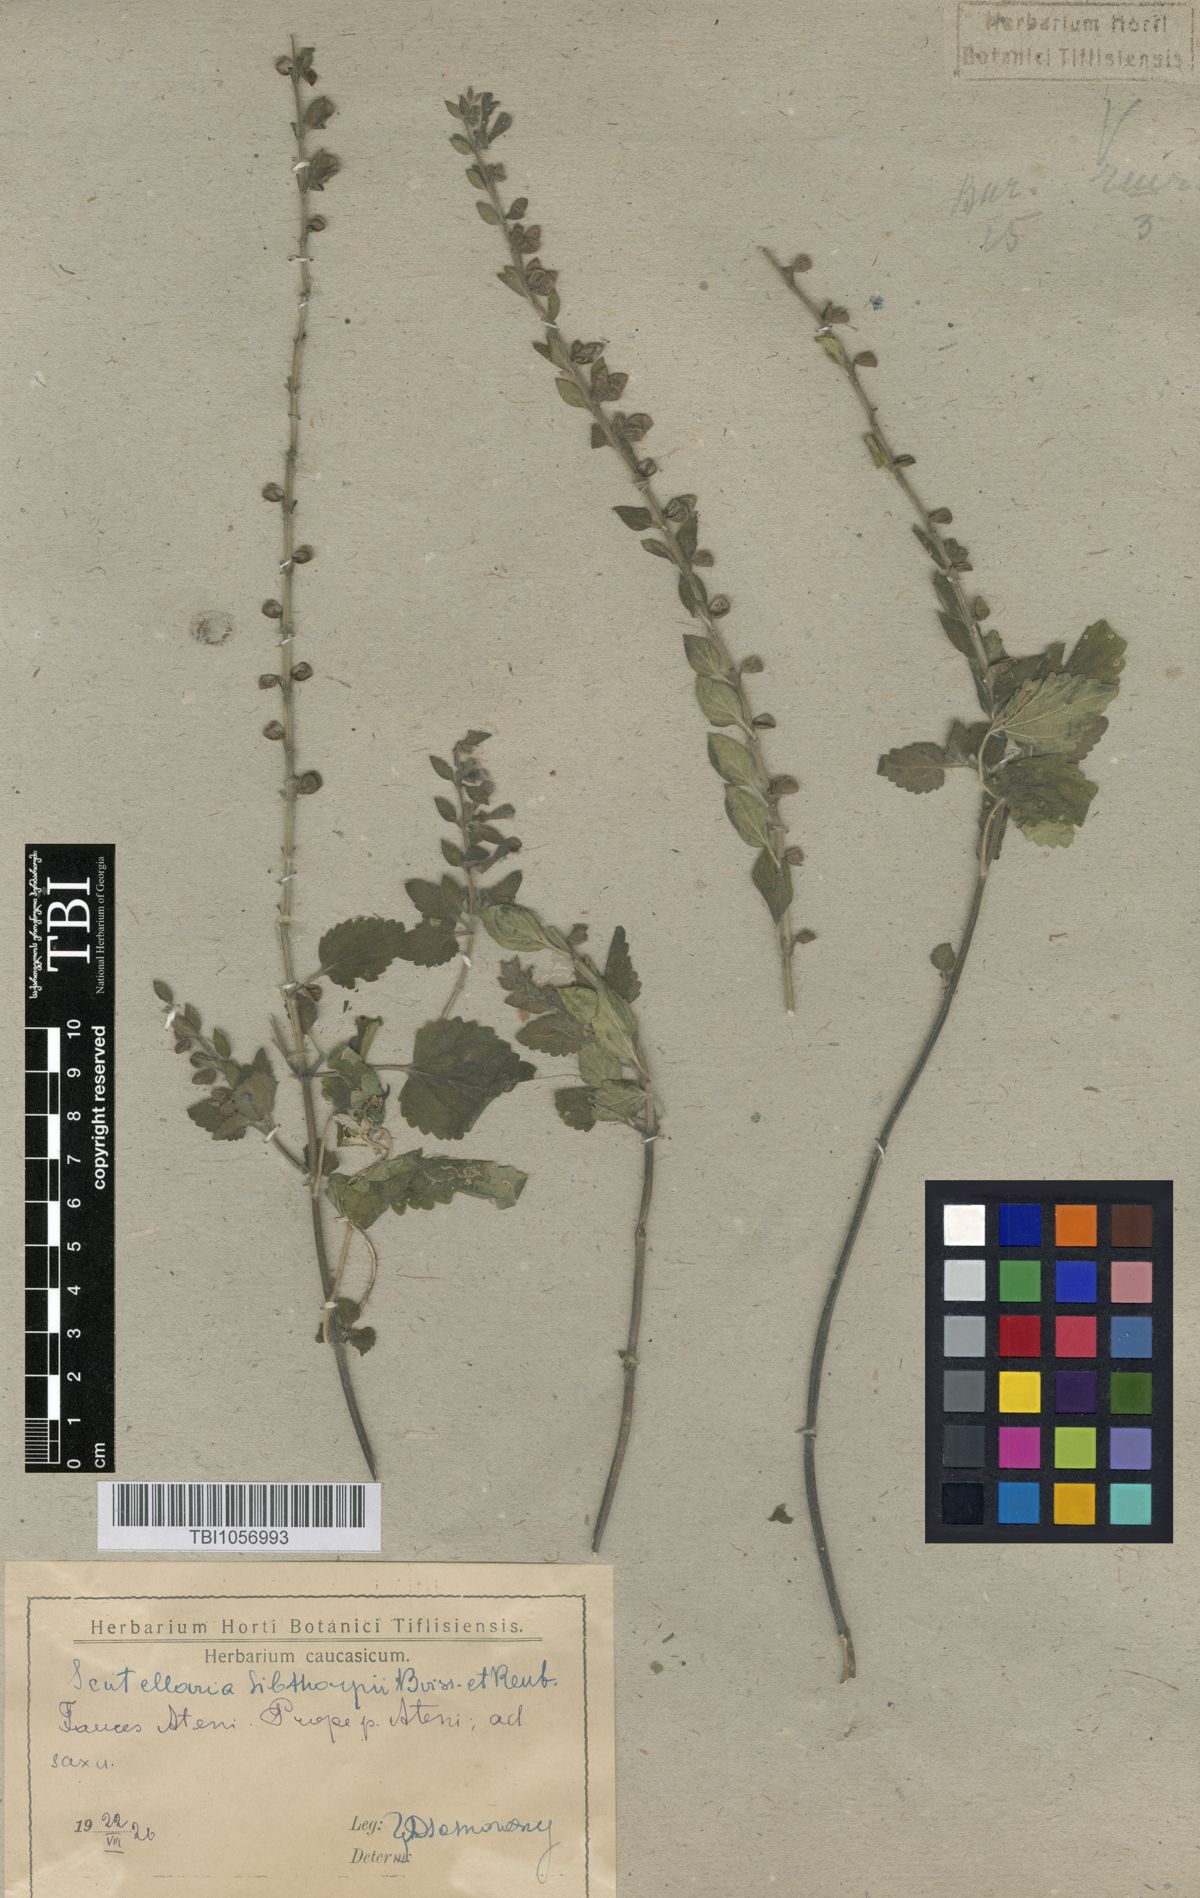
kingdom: Plantae
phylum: Tracheophyta
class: Magnoliopsida
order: Lamiales
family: Lamiaceae
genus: Scutellaria
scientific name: Scutellaria albida
